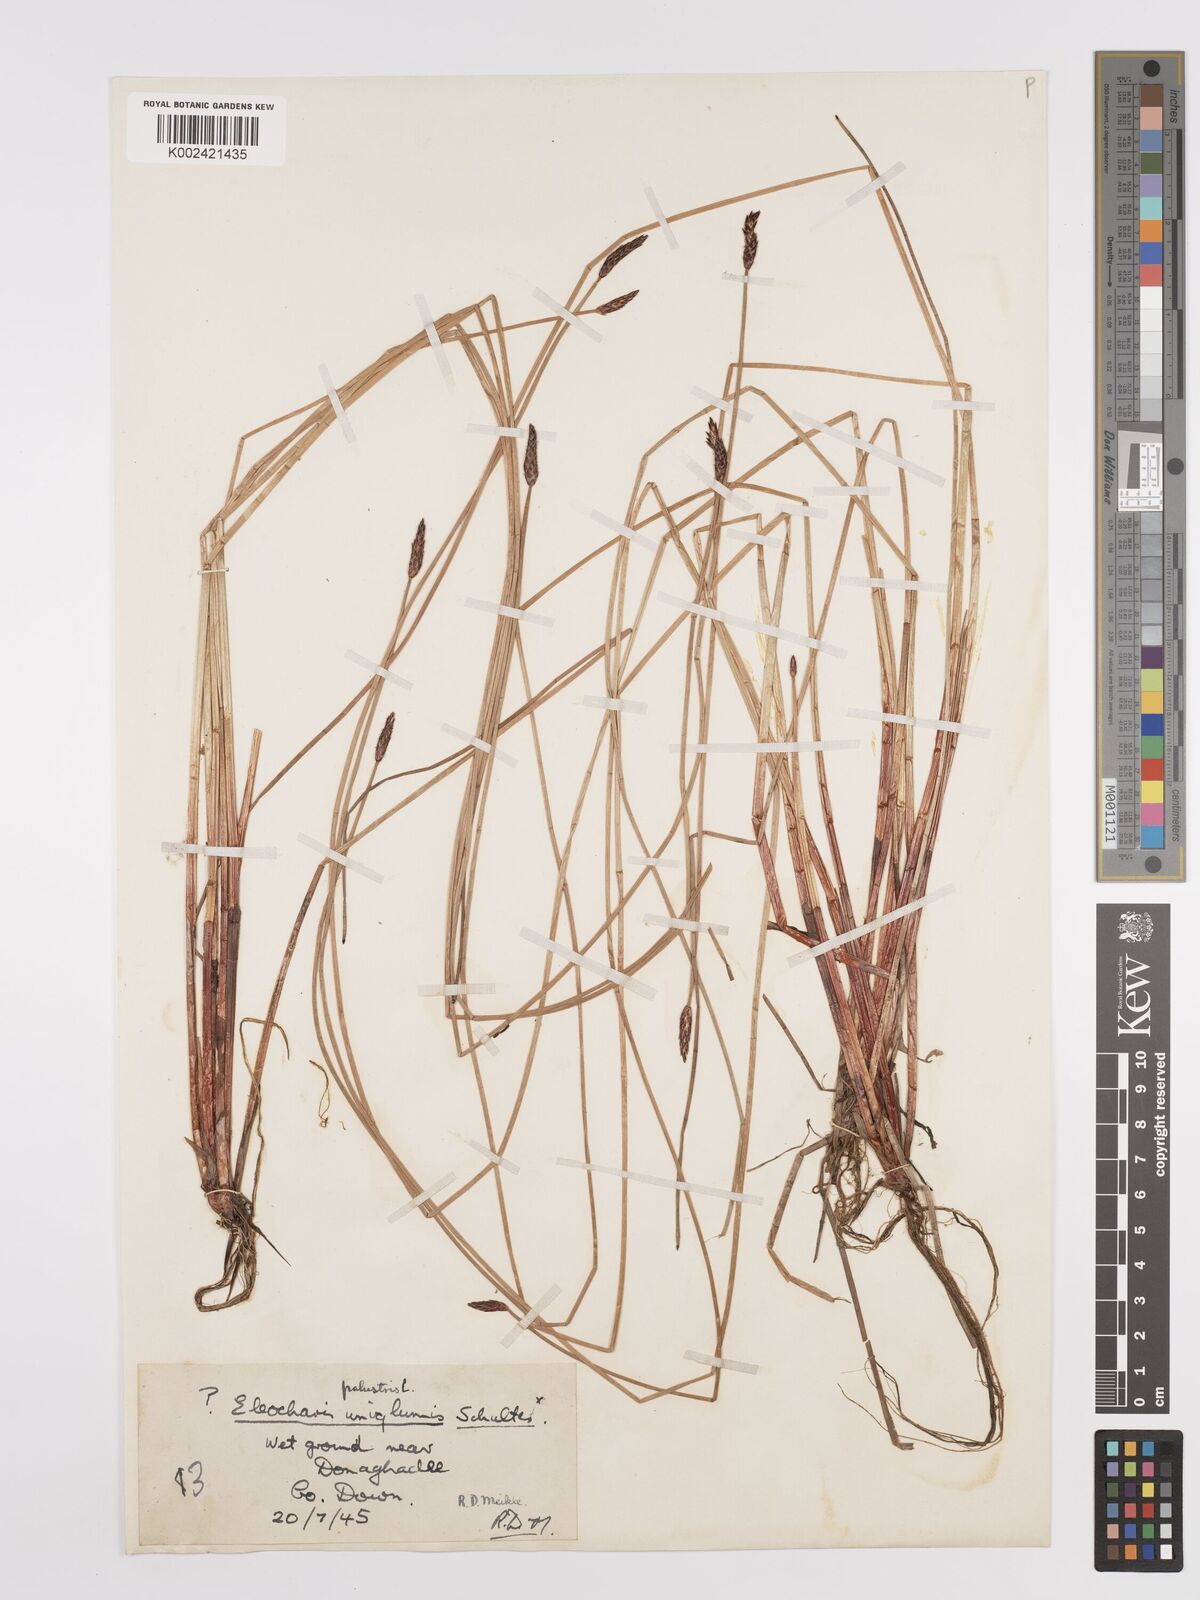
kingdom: Plantae
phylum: Tracheophyta
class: Liliopsida
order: Poales
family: Cyperaceae
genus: Eleocharis
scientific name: Eleocharis uniglumis
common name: Slender spike-rush
